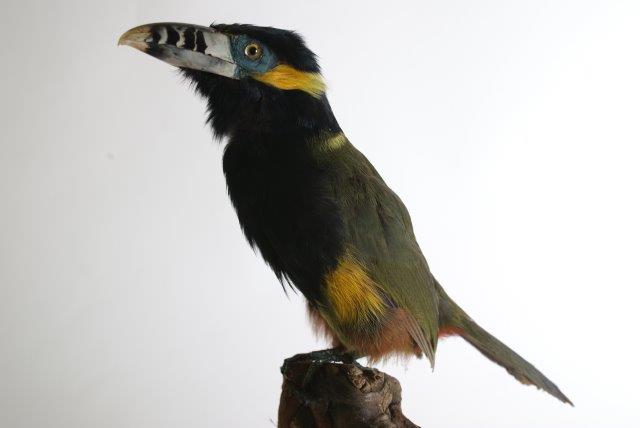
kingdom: Animalia
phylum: Chordata
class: Aves
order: Piciformes
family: Ramphastidae
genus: Selenidera
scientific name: Selenidera maculirostris
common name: Spot-billed toucanet
